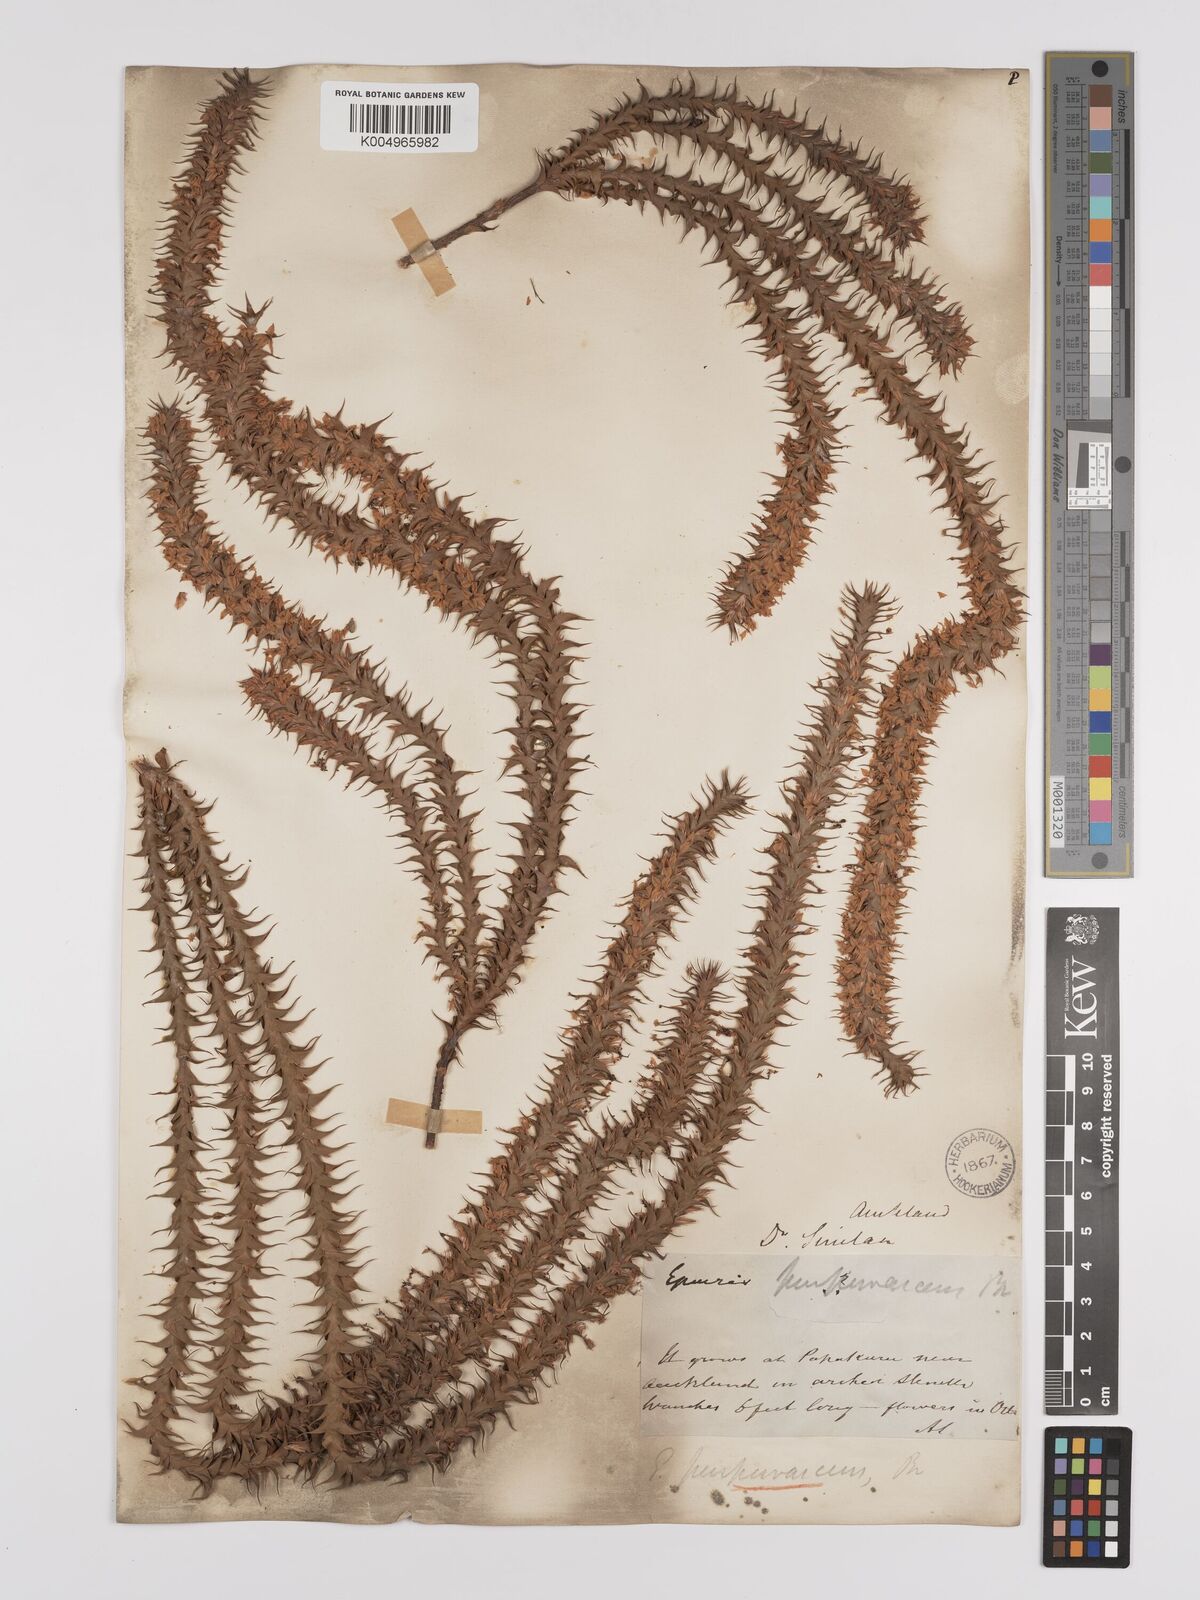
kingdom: Plantae
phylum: Tracheophyta
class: Magnoliopsida
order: Ericales
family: Ericaceae
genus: Epacris
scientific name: Epacris purpurascens
